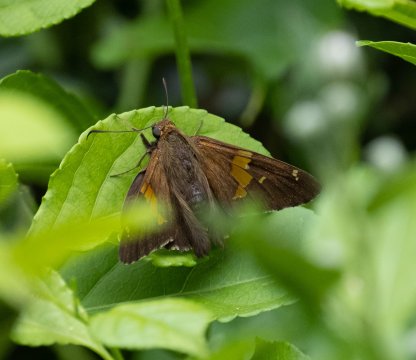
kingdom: Animalia
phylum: Arthropoda
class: Insecta
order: Lepidoptera
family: Hesperiidae
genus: Epargyreus
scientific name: Epargyreus clarus
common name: Silver-spotted Skipper
